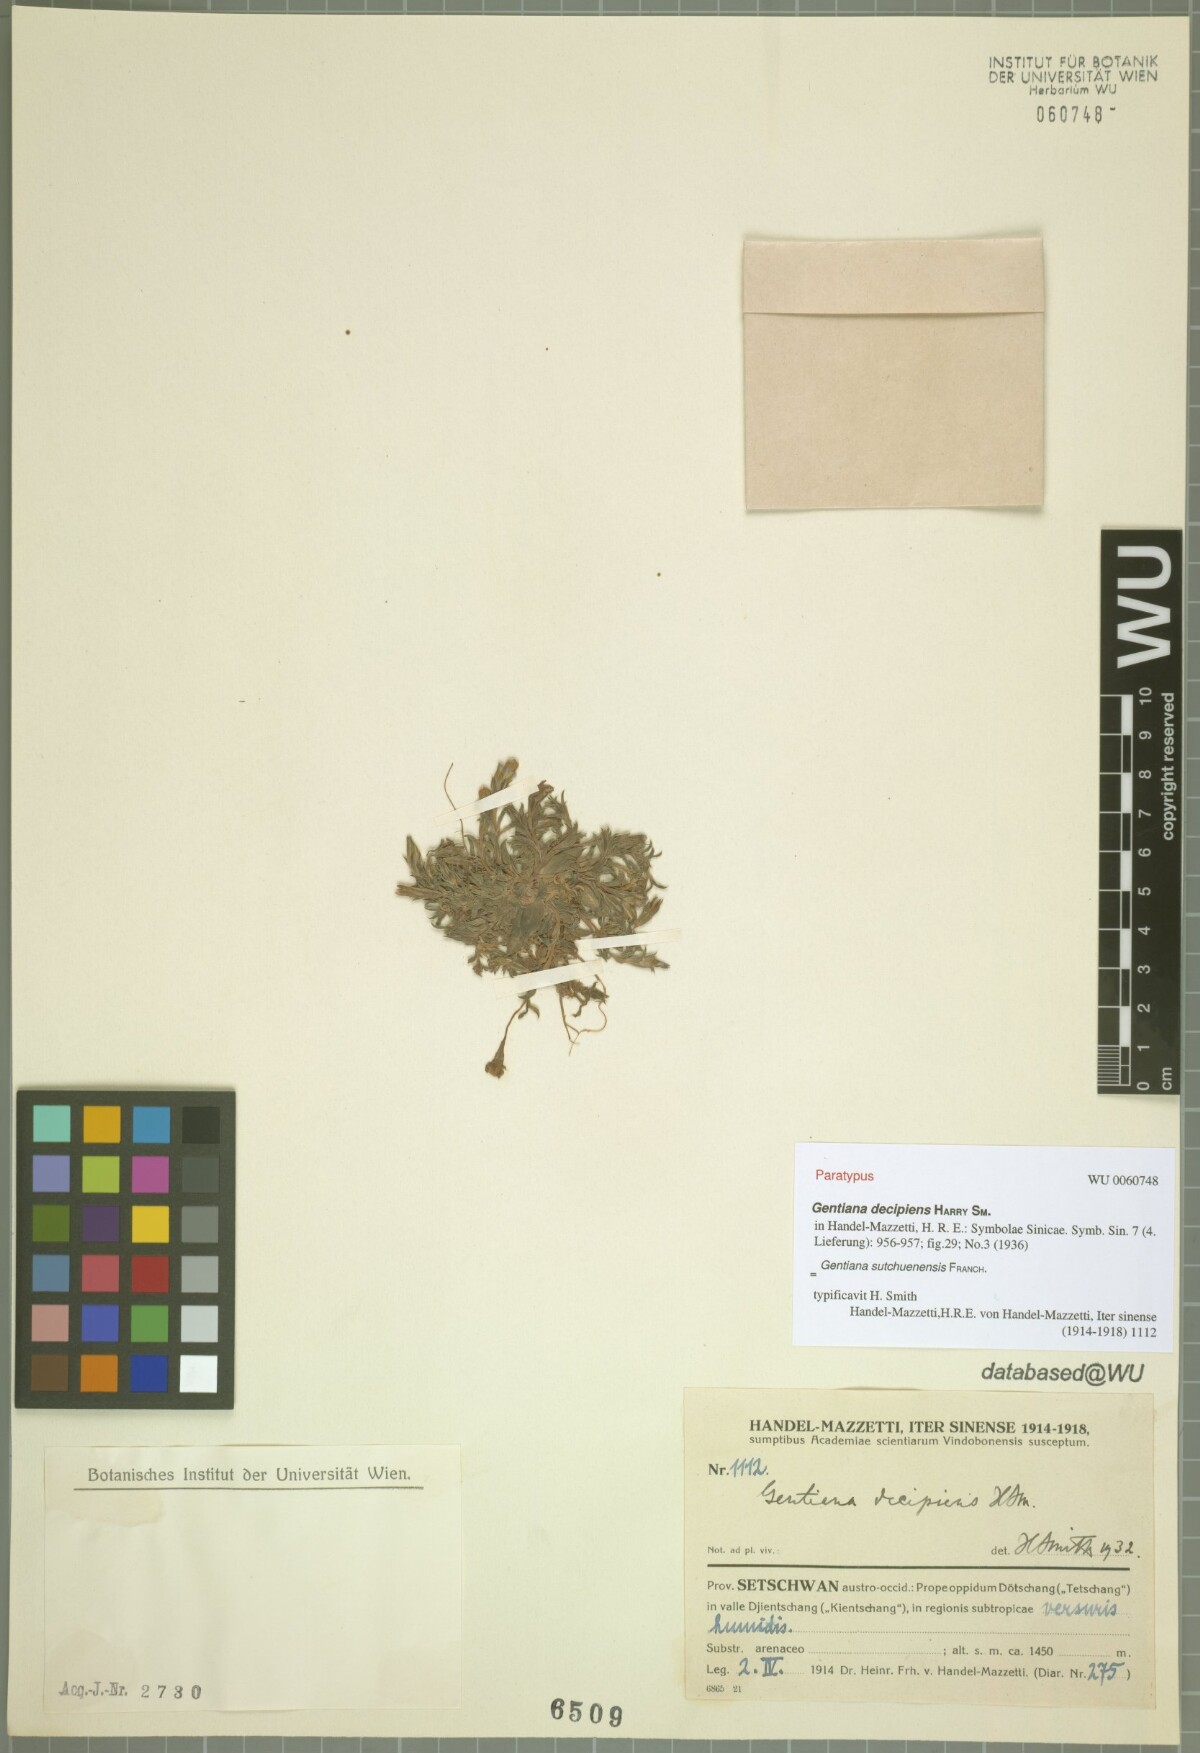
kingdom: Plantae
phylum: Tracheophyta
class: Magnoliopsida
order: Gentianales
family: Gentianaceae
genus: Gentiana
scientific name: Gentiana sutchuenensis
